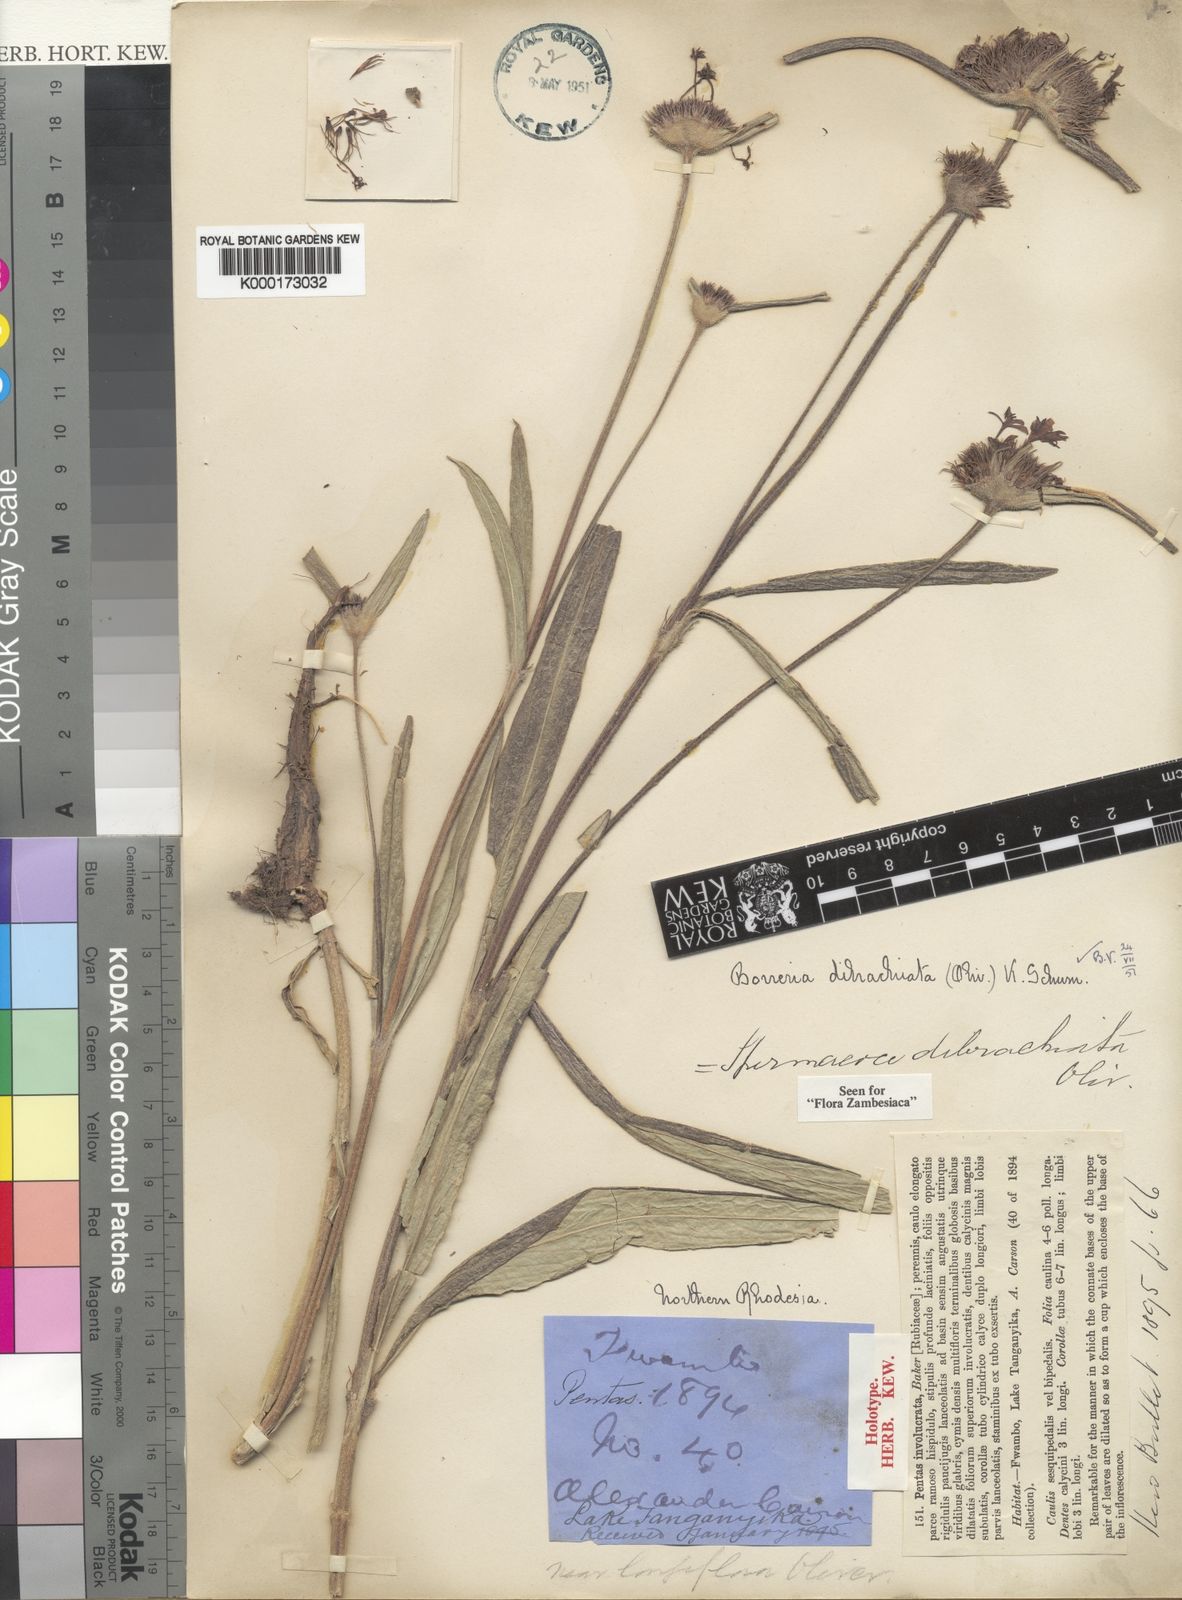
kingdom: Plantae
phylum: Tracheophyta
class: Magnoliopsida
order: Gentianales
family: Rubiaceae
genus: Spermacoce
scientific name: Spermacoce dibrachiata
